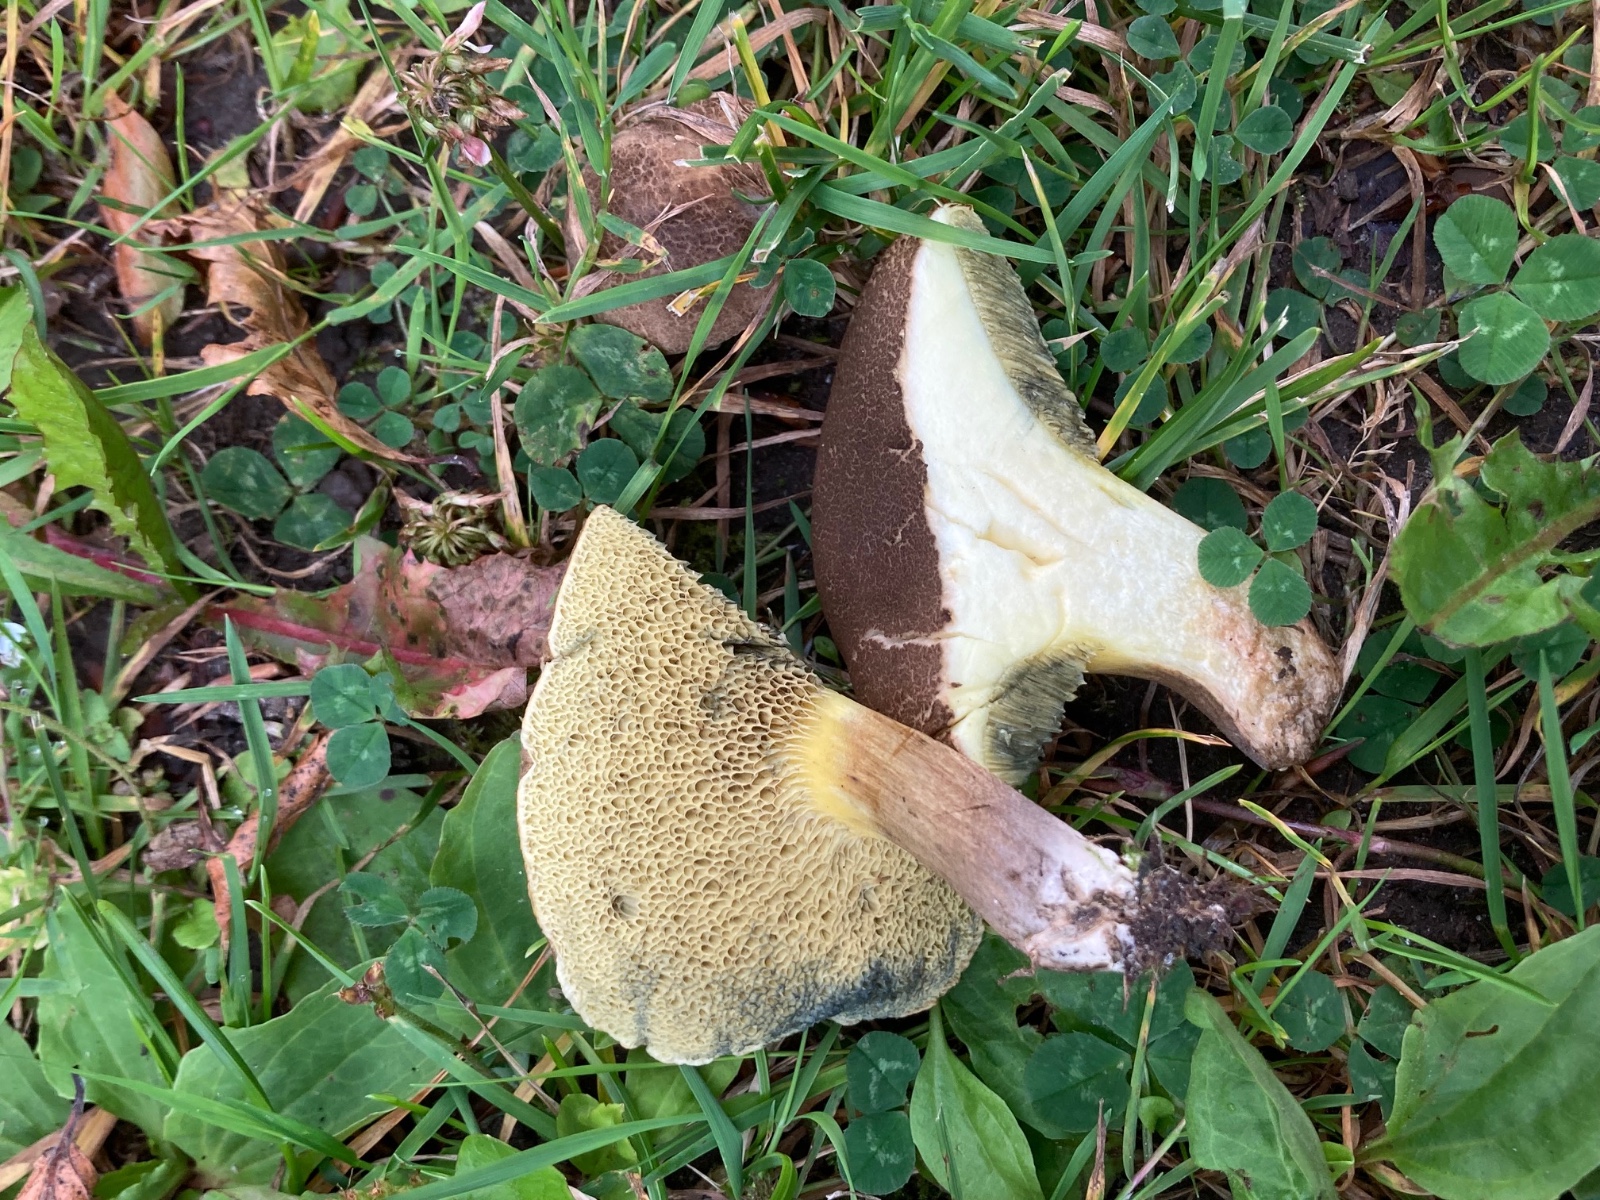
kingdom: Fungi
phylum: Basidiomycota
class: Agaricomycetes
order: Boletales
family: Boletaceae
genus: Xerocomellus
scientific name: Xerocomellus porosporus
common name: hvidsprukken rørhat
